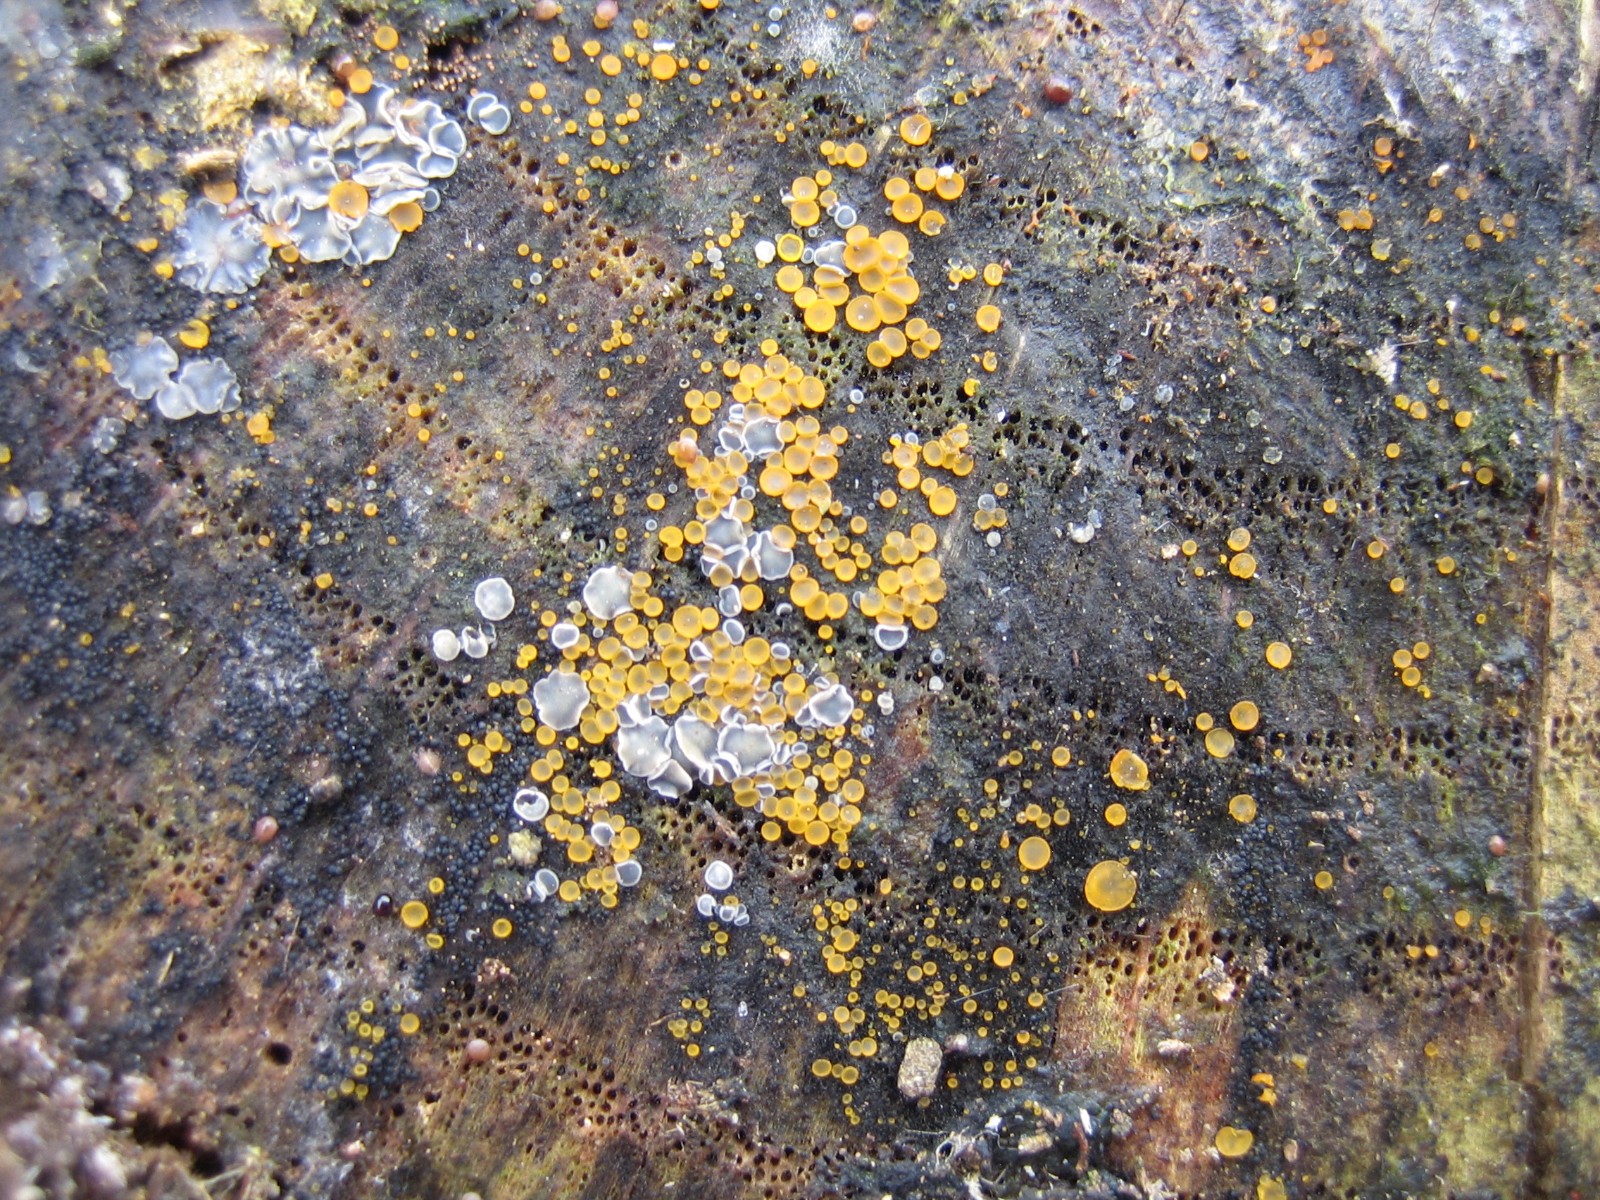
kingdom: Fungi
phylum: Ascomycota
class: Orbiliomycetes
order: Orbiliales
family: Orbiliaceae
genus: Orbilia
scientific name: Orbilia xanthostigma
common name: krumsporet voksskive
